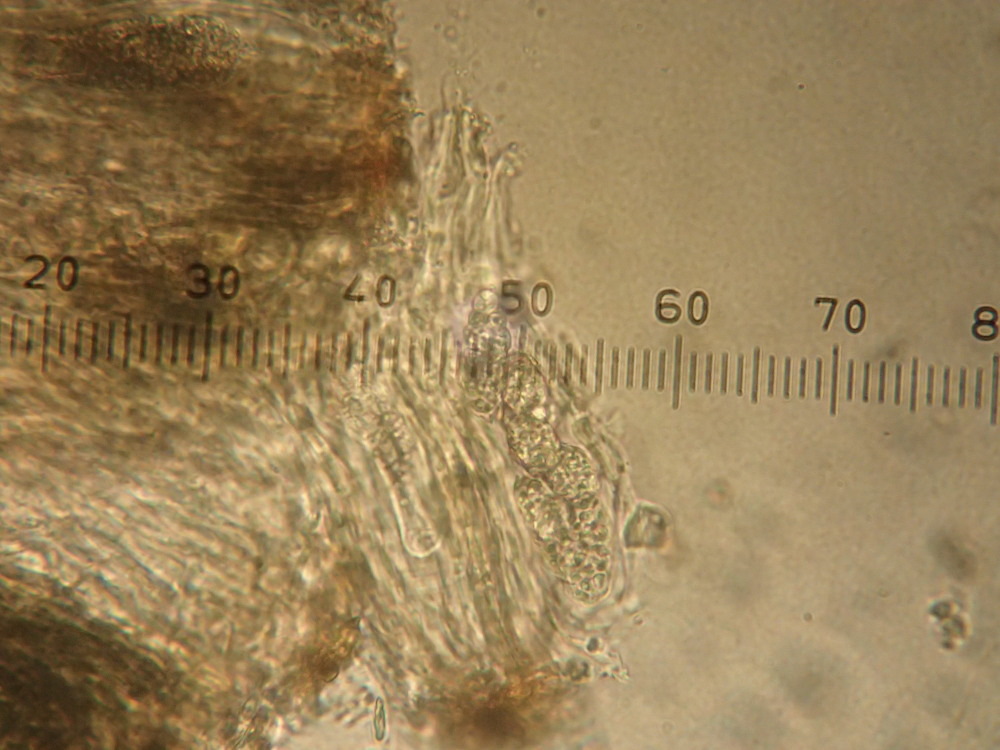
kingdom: Fungi
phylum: Ascomycota
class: Lecanoromycetes
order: Rhizocarpales
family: Rhizocarpaceae
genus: Rhizocarpon
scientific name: Rhizocarpon reductum
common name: mørk landkortlav
